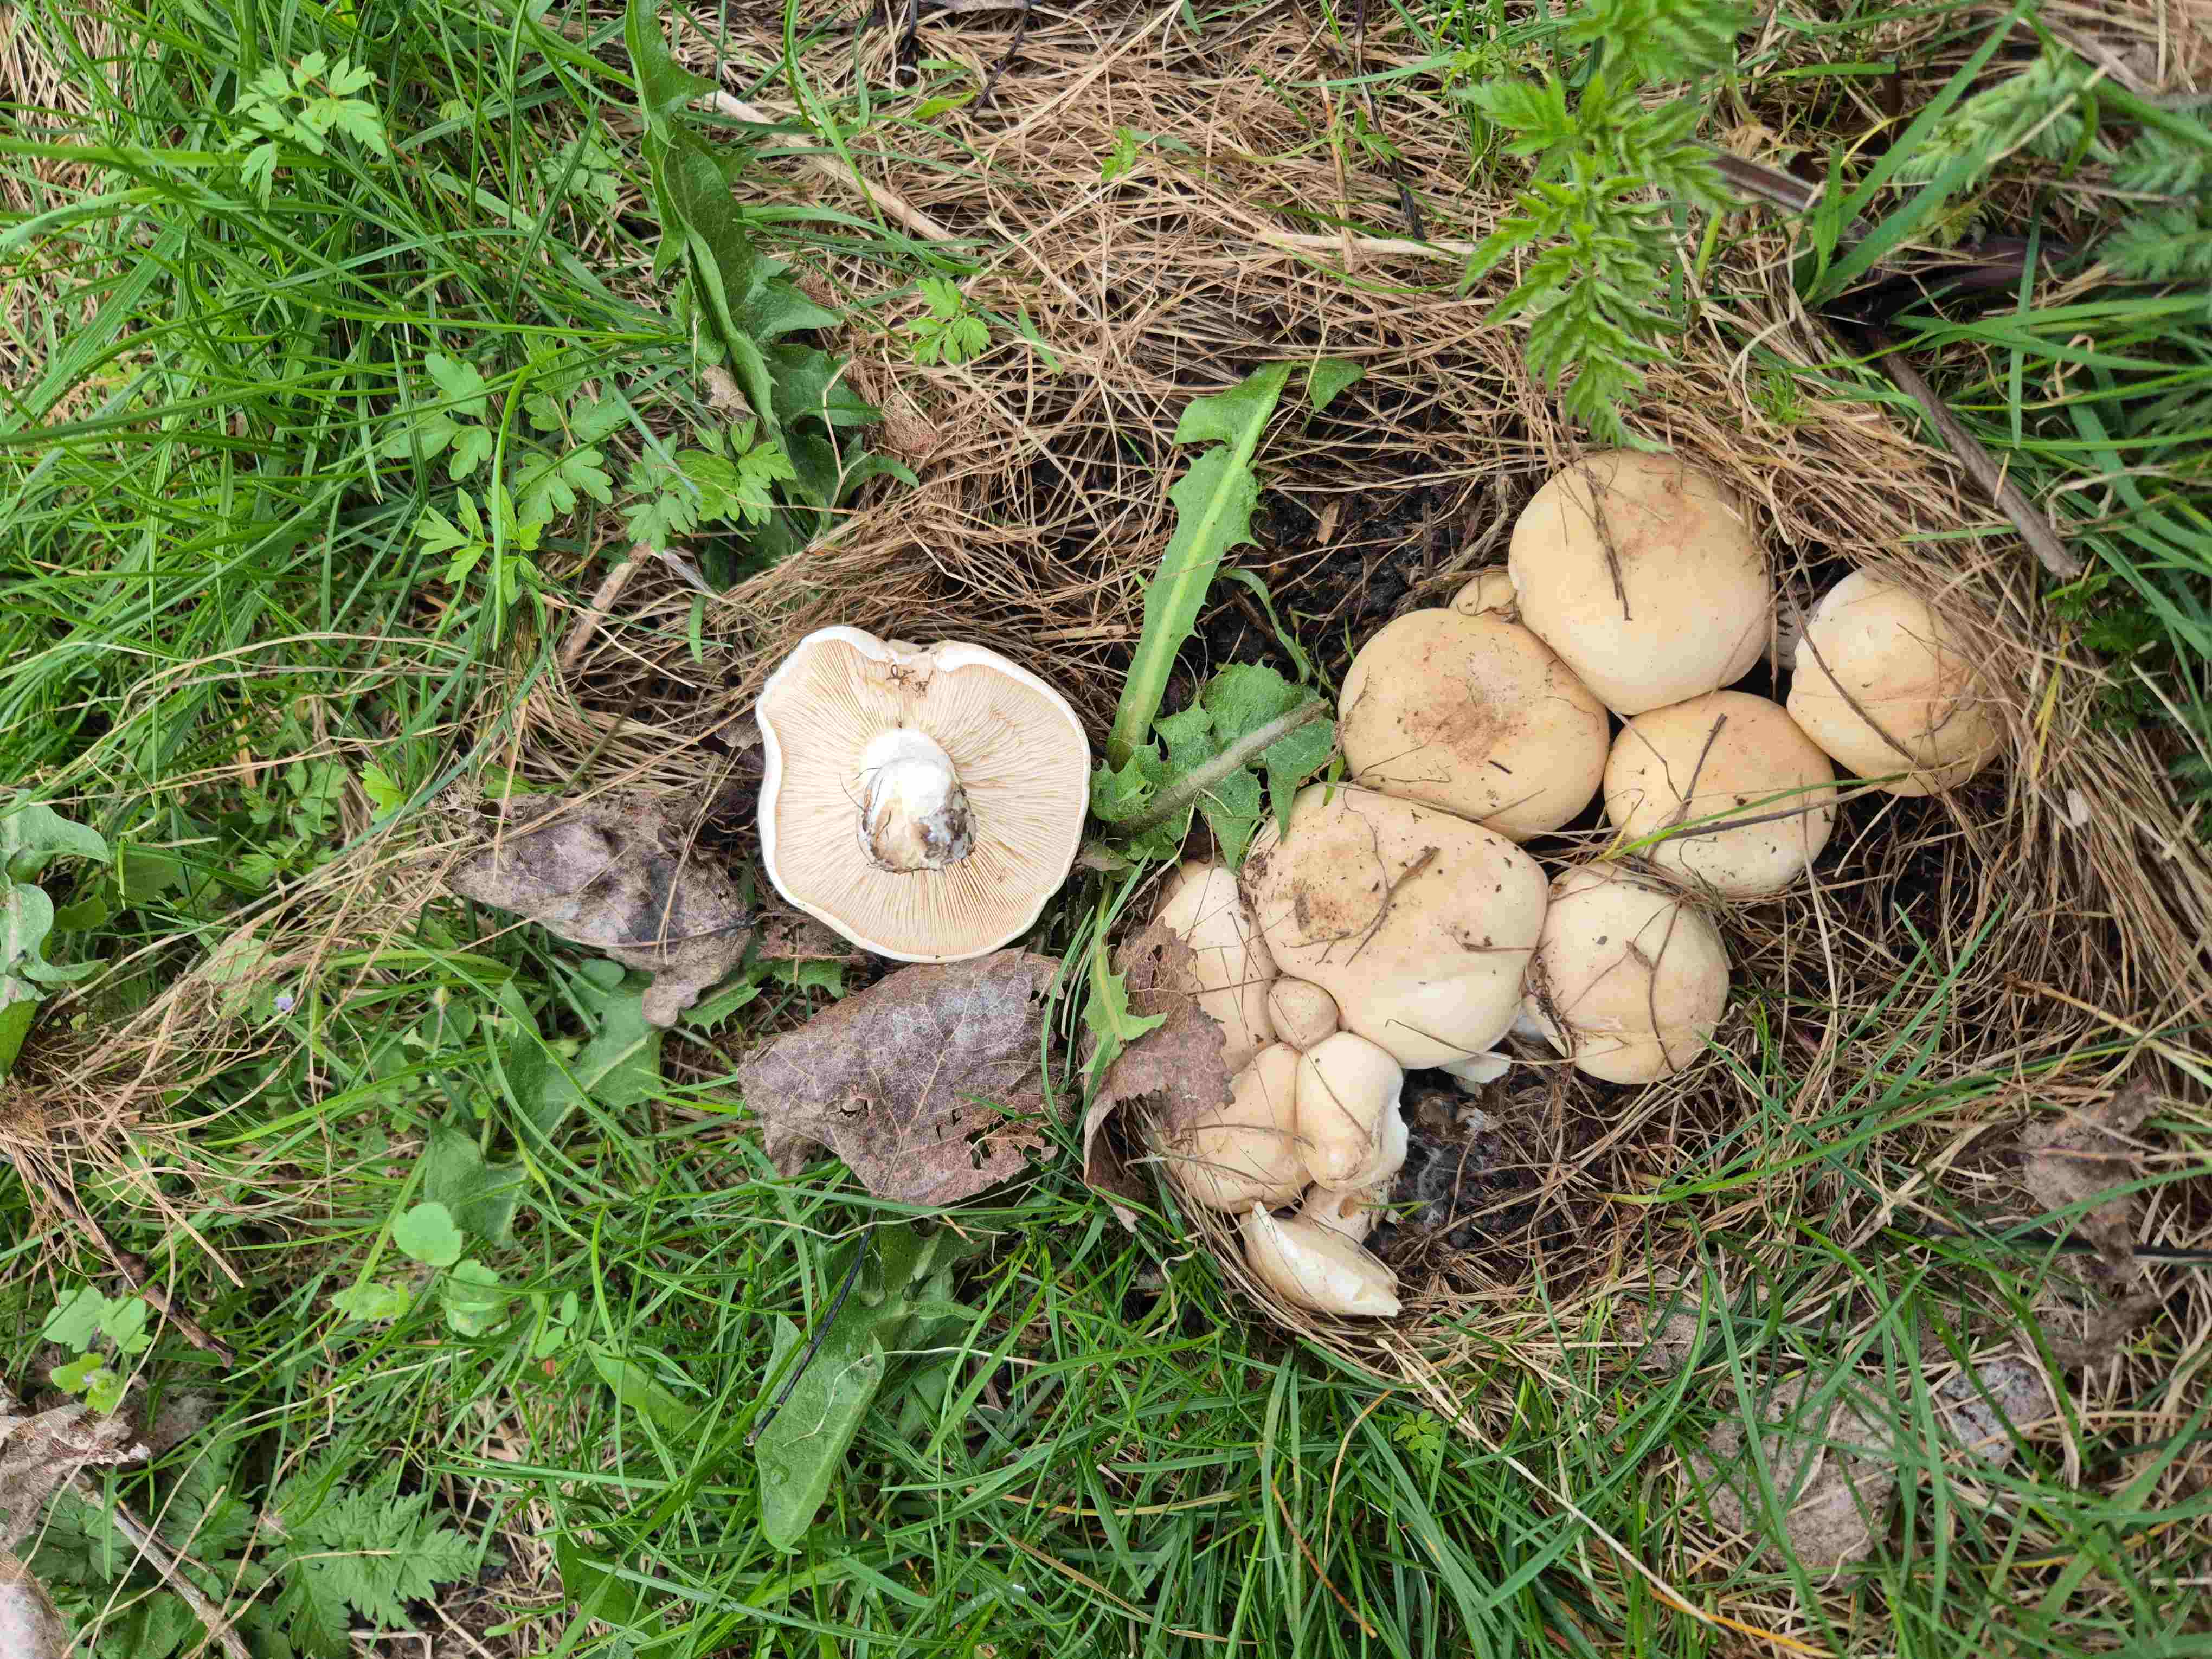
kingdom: Fungi
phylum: Basidiomycota
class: Agaricomycetes
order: Agaricales
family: Lyophyllaceae
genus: Calocybe
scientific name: Calocybe gambosa
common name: vårmusseron
